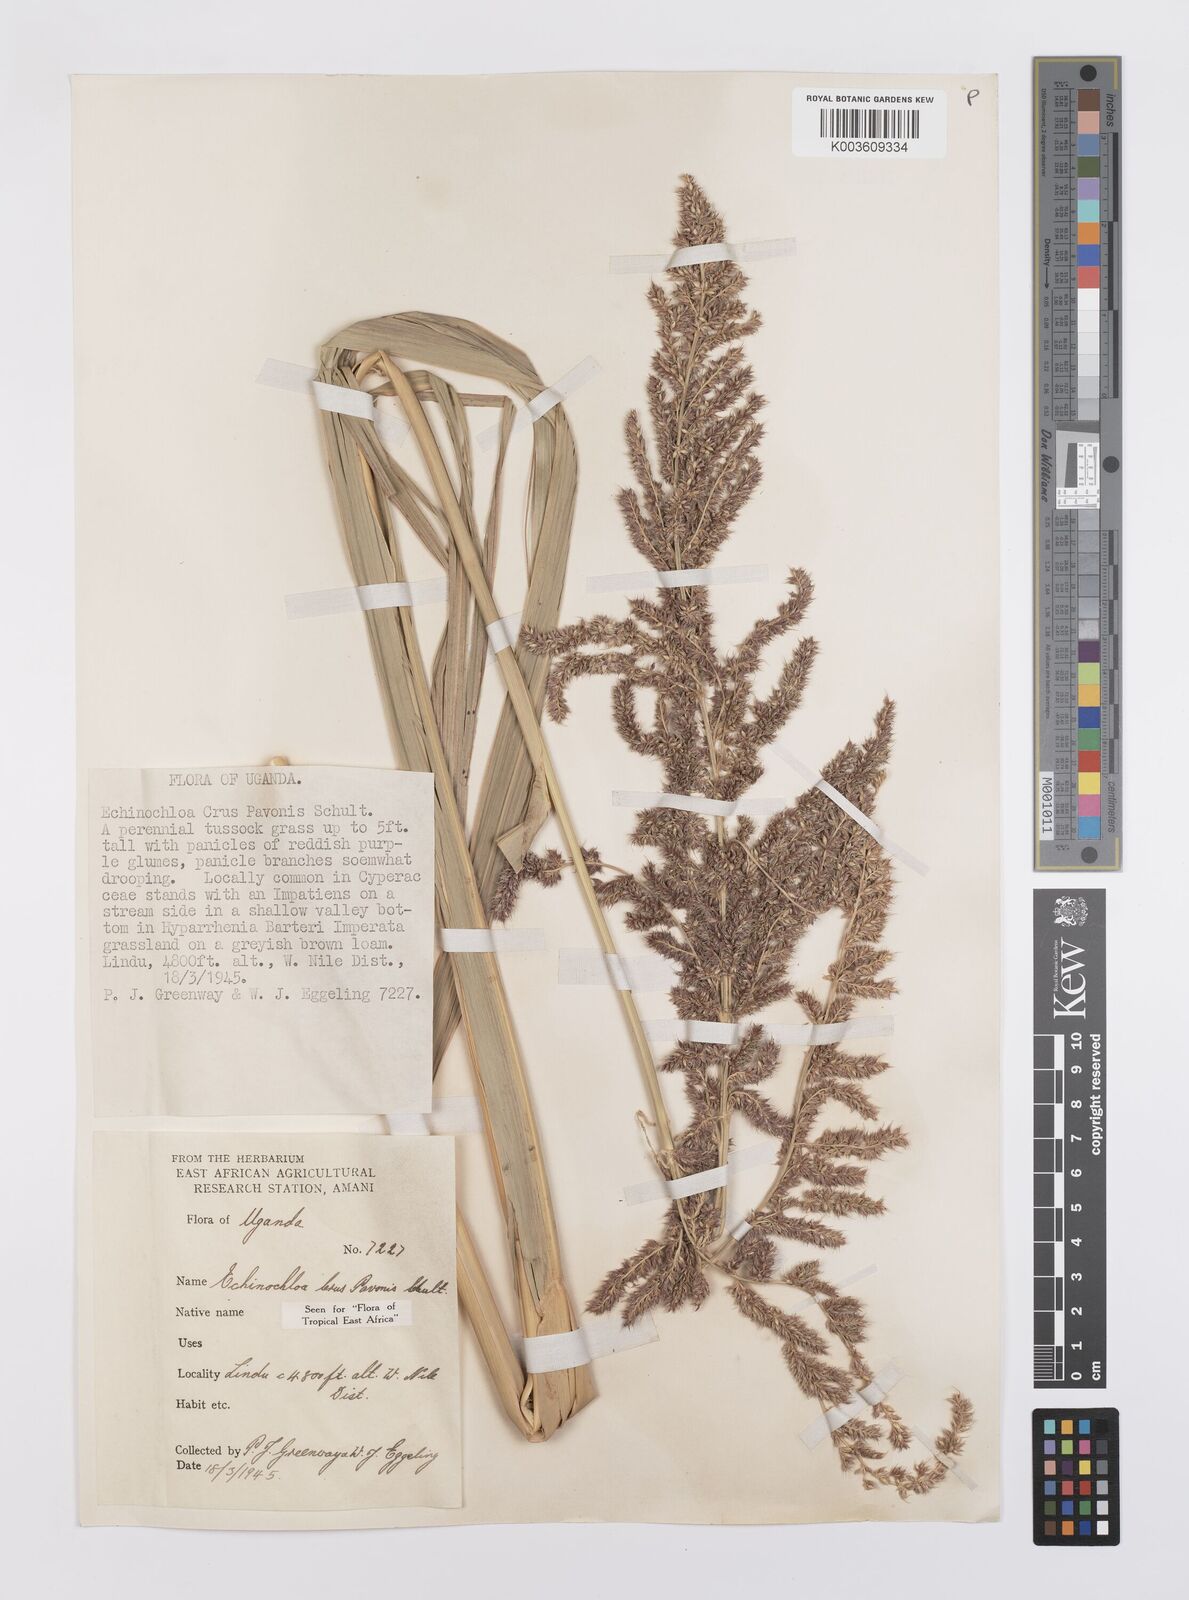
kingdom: Plantae
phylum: Tracheophyta
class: Liliopsida
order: Poales
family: Poaceae
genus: Echinochloa
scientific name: Echinochloa crus-pavonis
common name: Gulf cockspur grass
